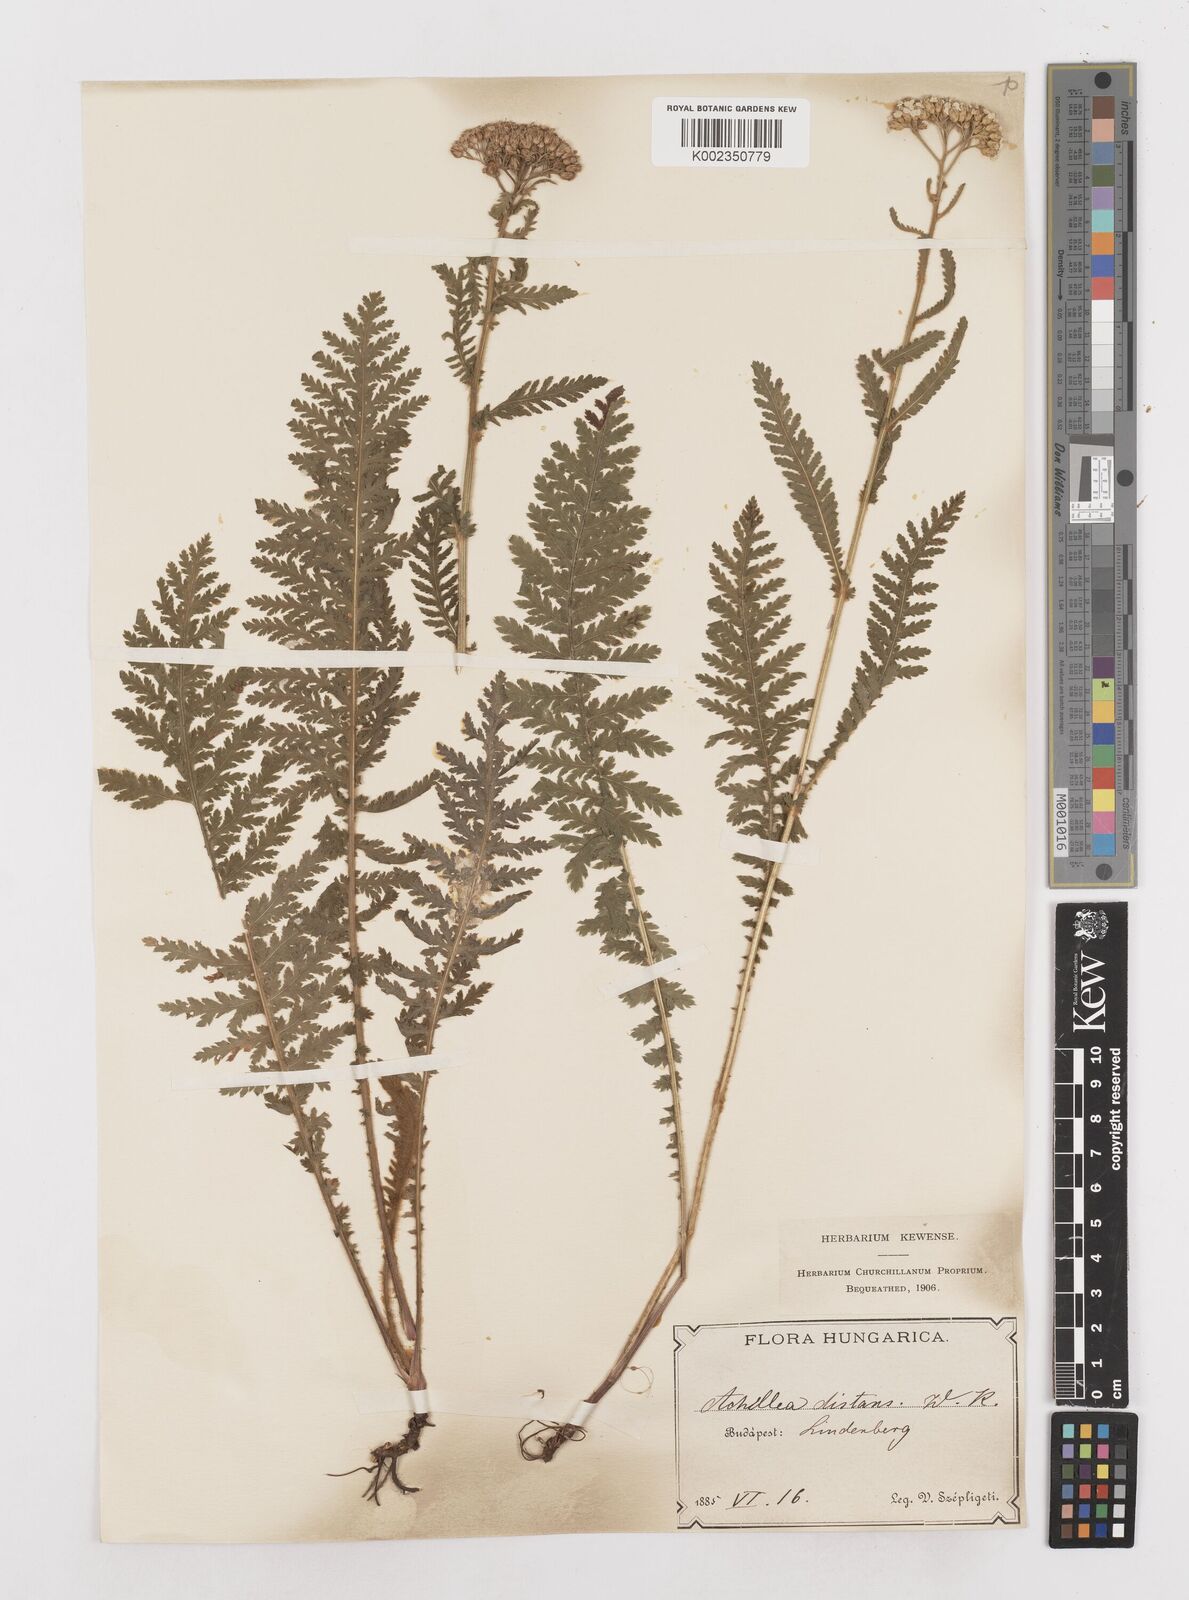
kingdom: Plantae
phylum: Tracheophyta
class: Magnoliopsida
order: Asterales
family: Asteraceae
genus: Achillea
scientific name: Achillea distans
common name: Tall yarrow
